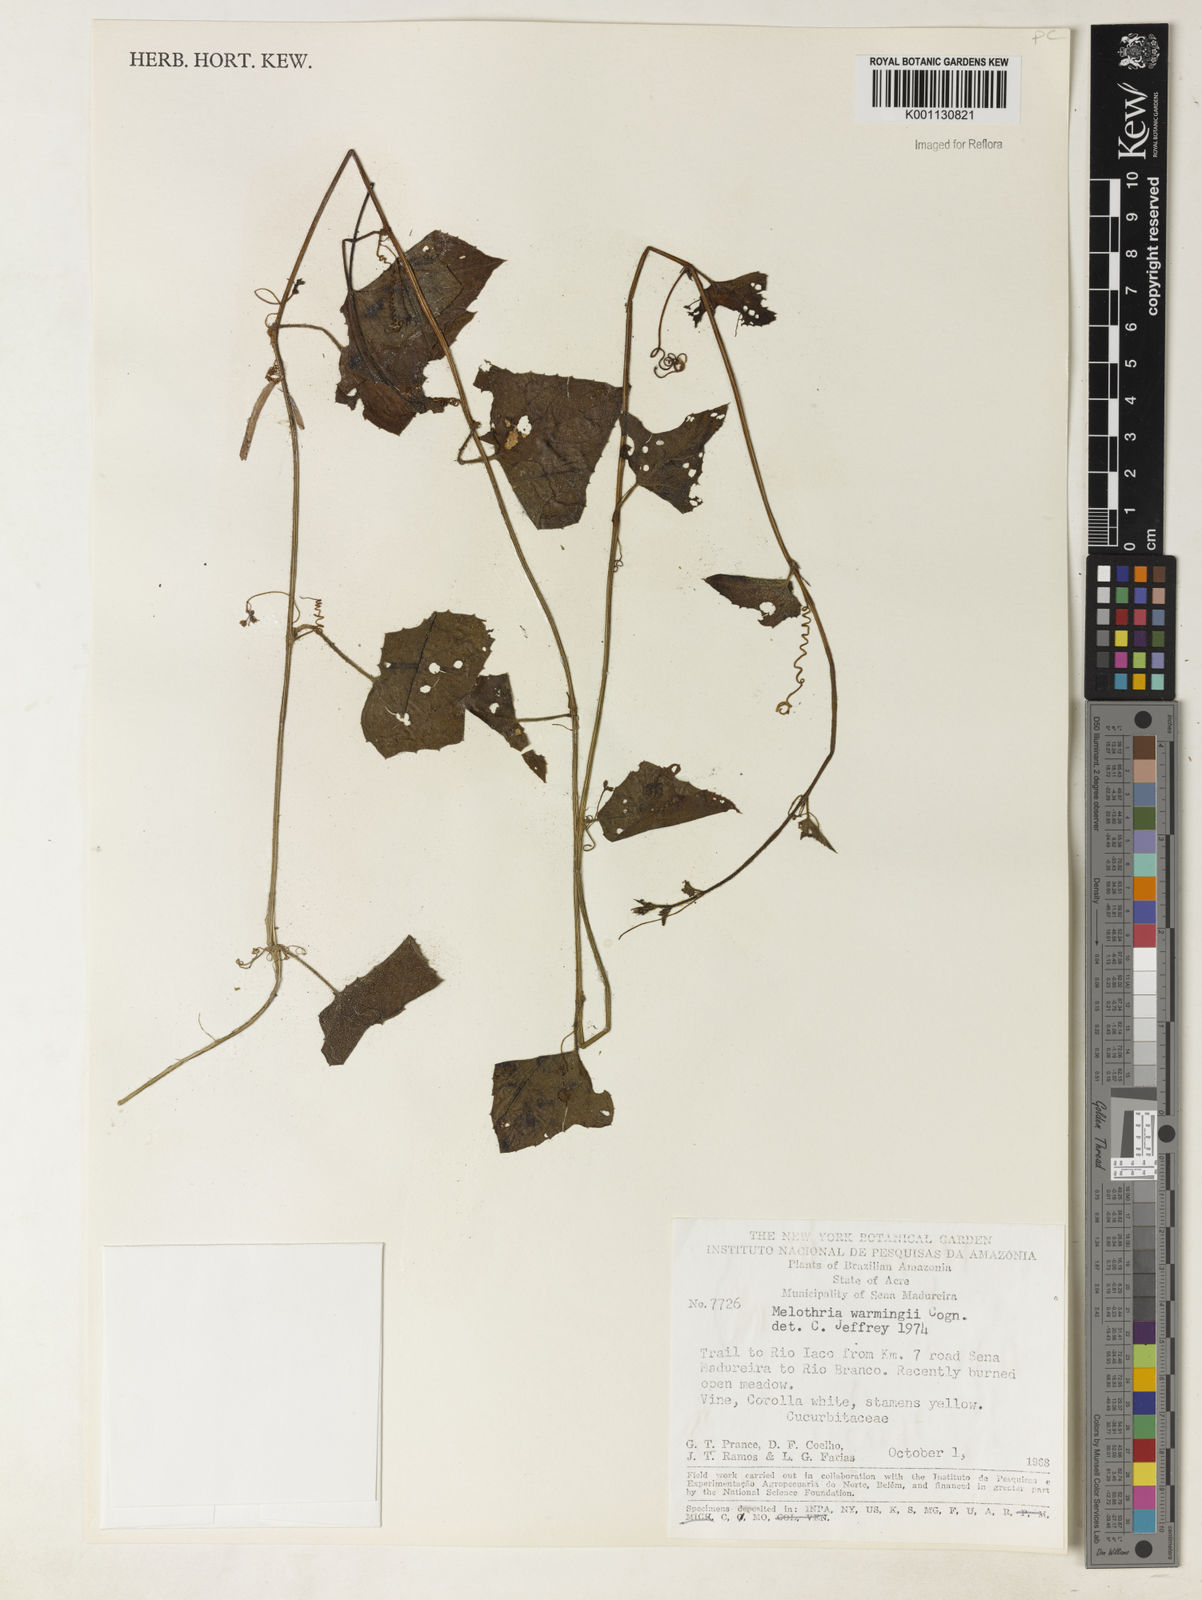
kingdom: Plantae
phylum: Tracheophyta
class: Magnoliopsida
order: Cucurbitales
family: Cucurbitaceae
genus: Melothria
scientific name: Melothria warmingii
